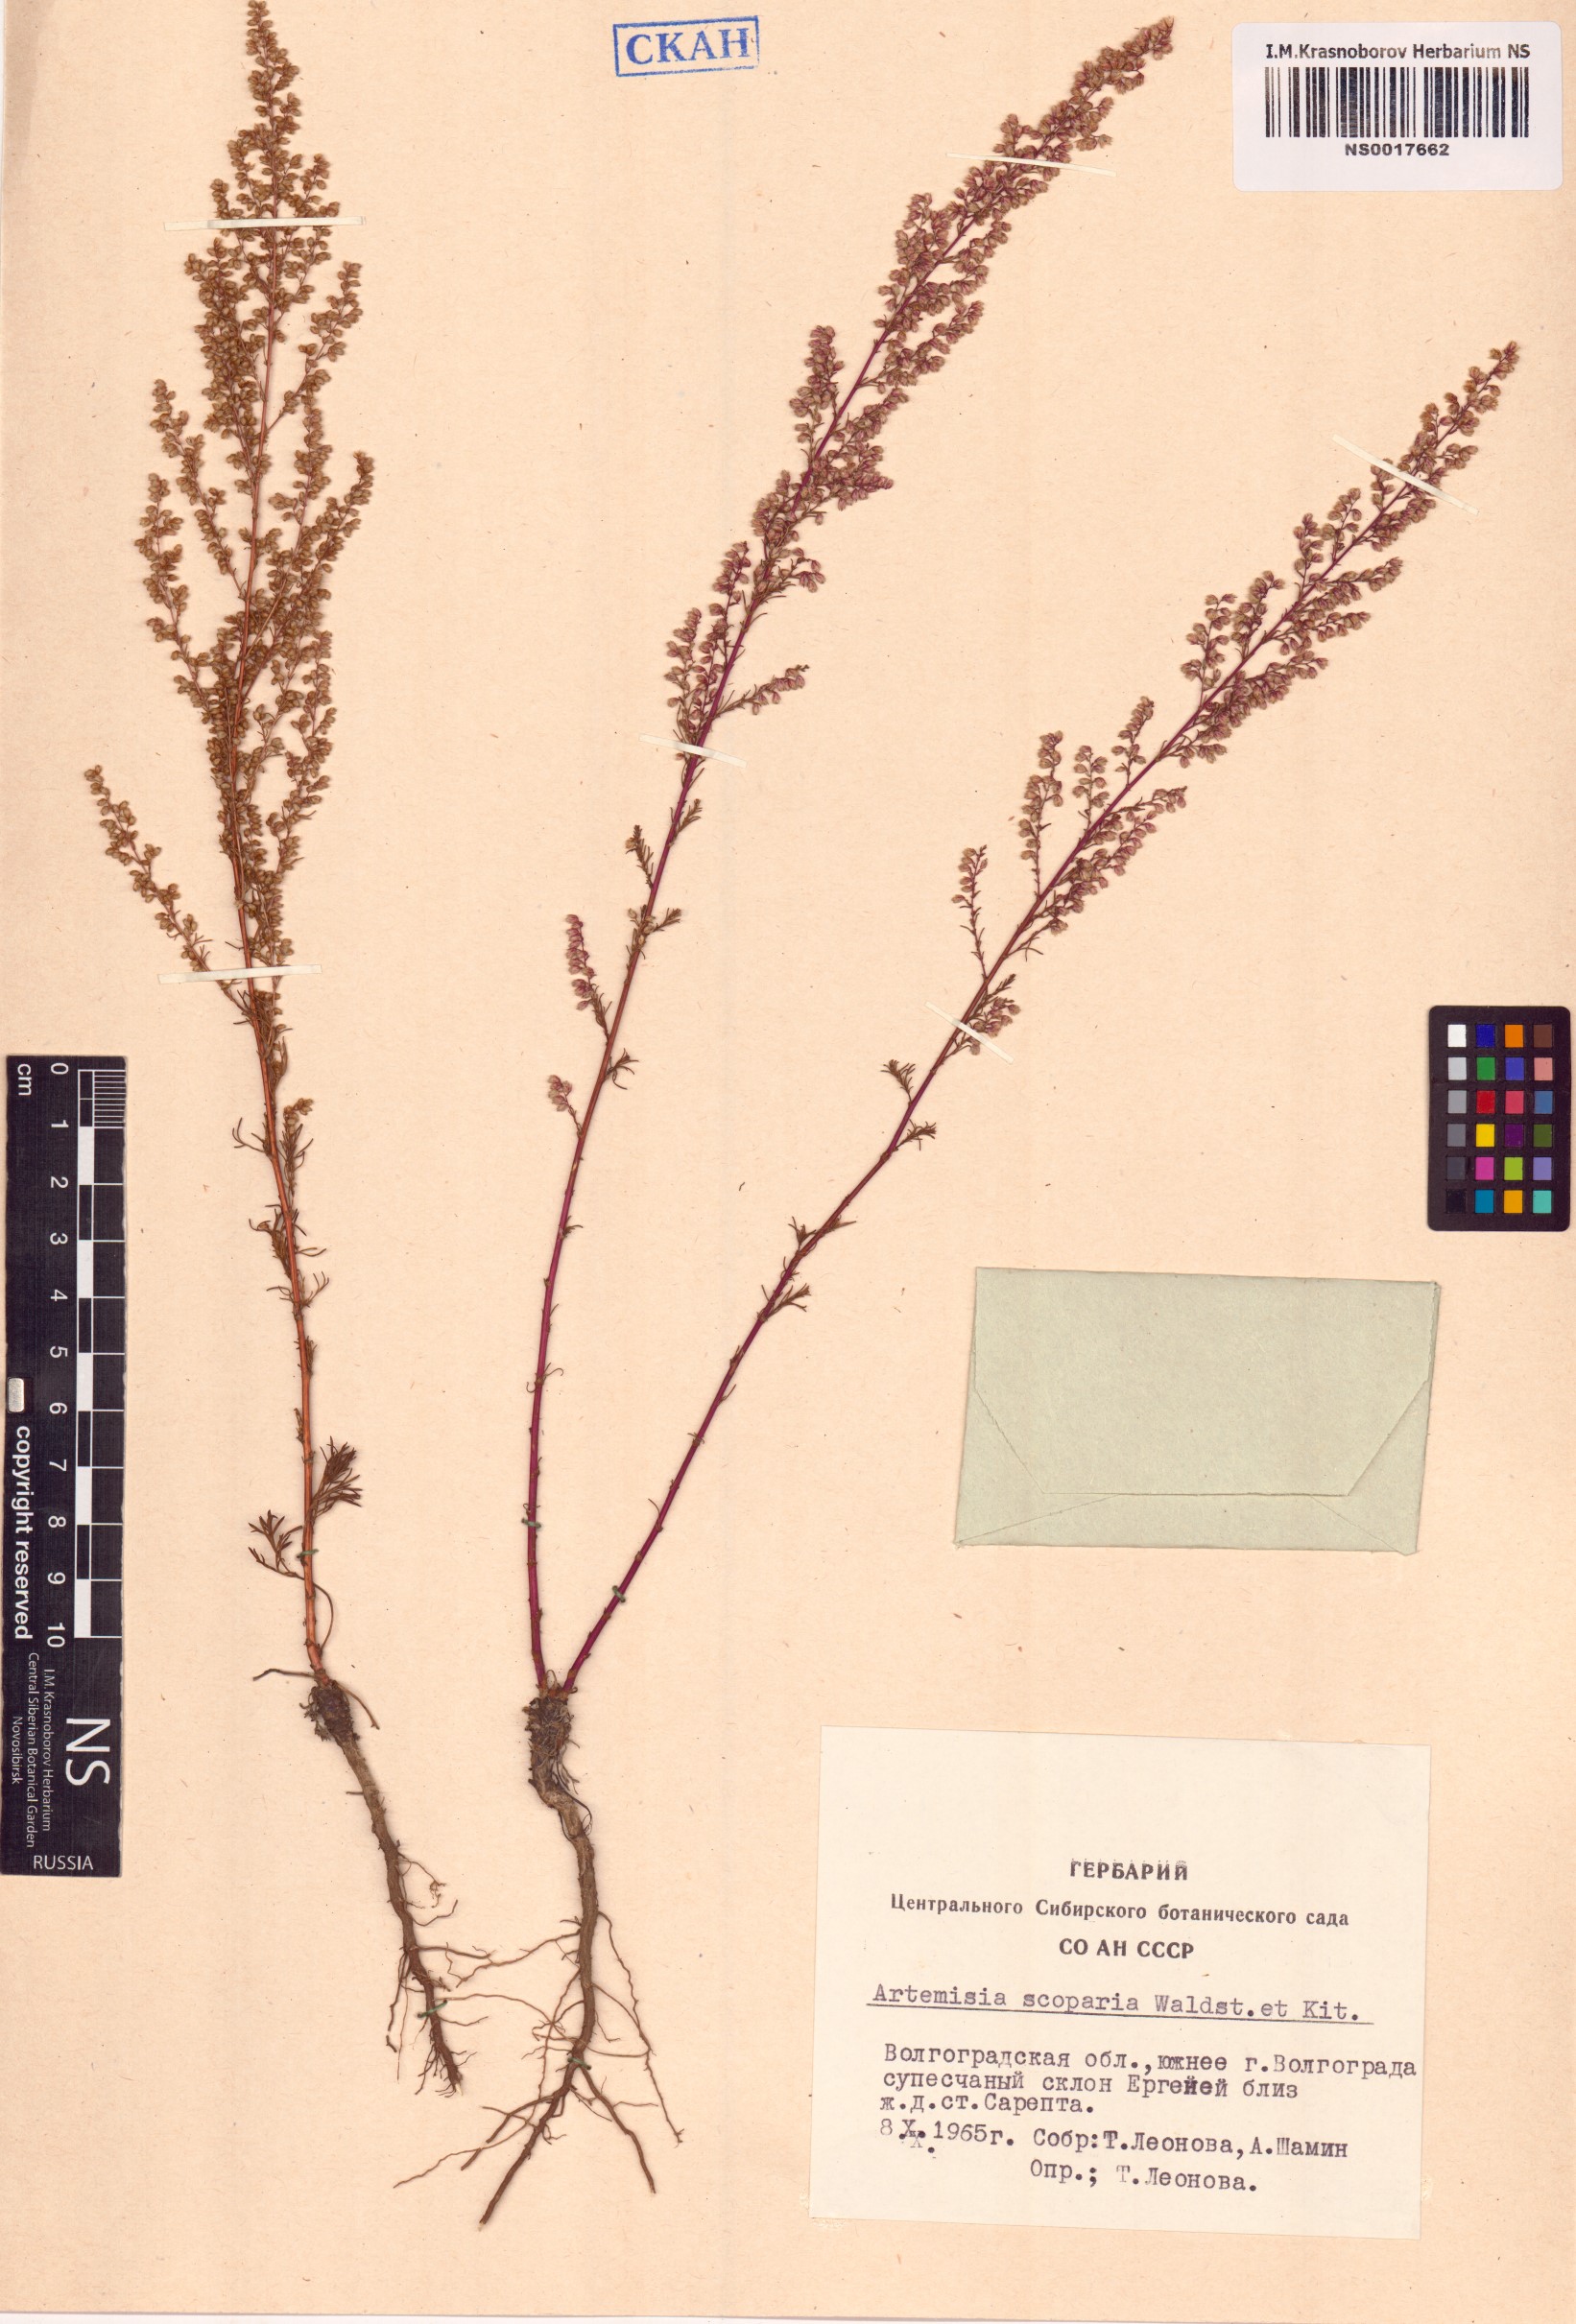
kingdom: Plantae
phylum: Tracheophyta
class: Magnoliopsida
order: Asterales
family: Asteraceae
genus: Artemisia
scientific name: Artemisia scoparia
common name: Redstem wormwood
